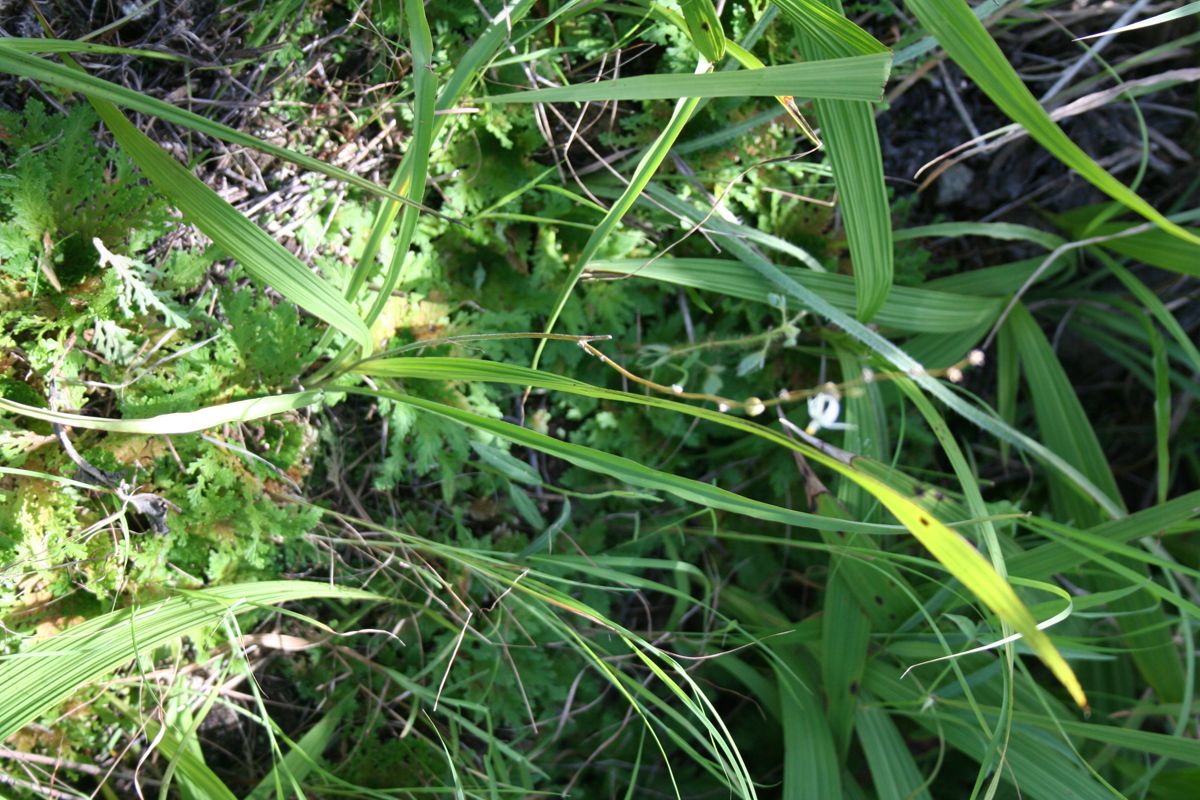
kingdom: Plantae
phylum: Tracheophyta
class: Liliopsida
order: Asparagales
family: Asparagaceae
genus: Echeandia
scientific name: Echeandia
